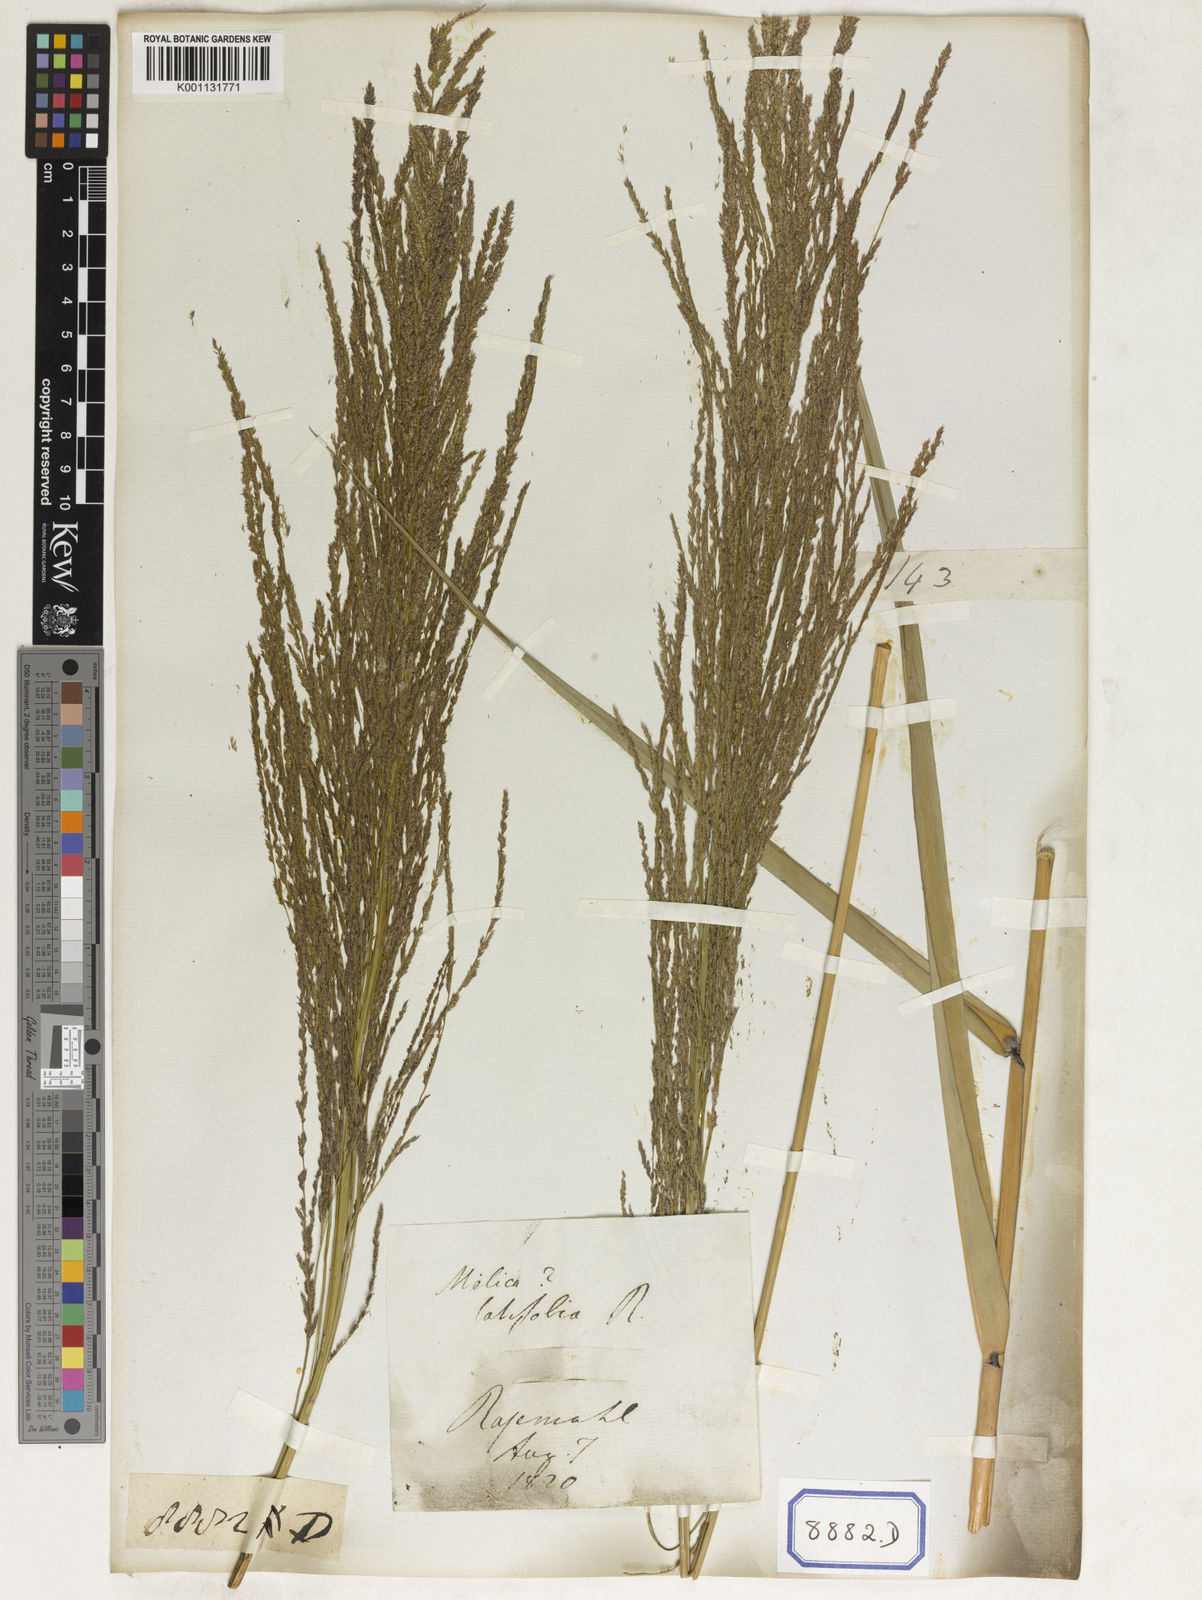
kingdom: Plantae
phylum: Tracheophyta
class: Liliopsida
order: Poales
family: Poaceae
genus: Thysanolaena
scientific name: Thysanolaena latifolia
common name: Tiger grass
